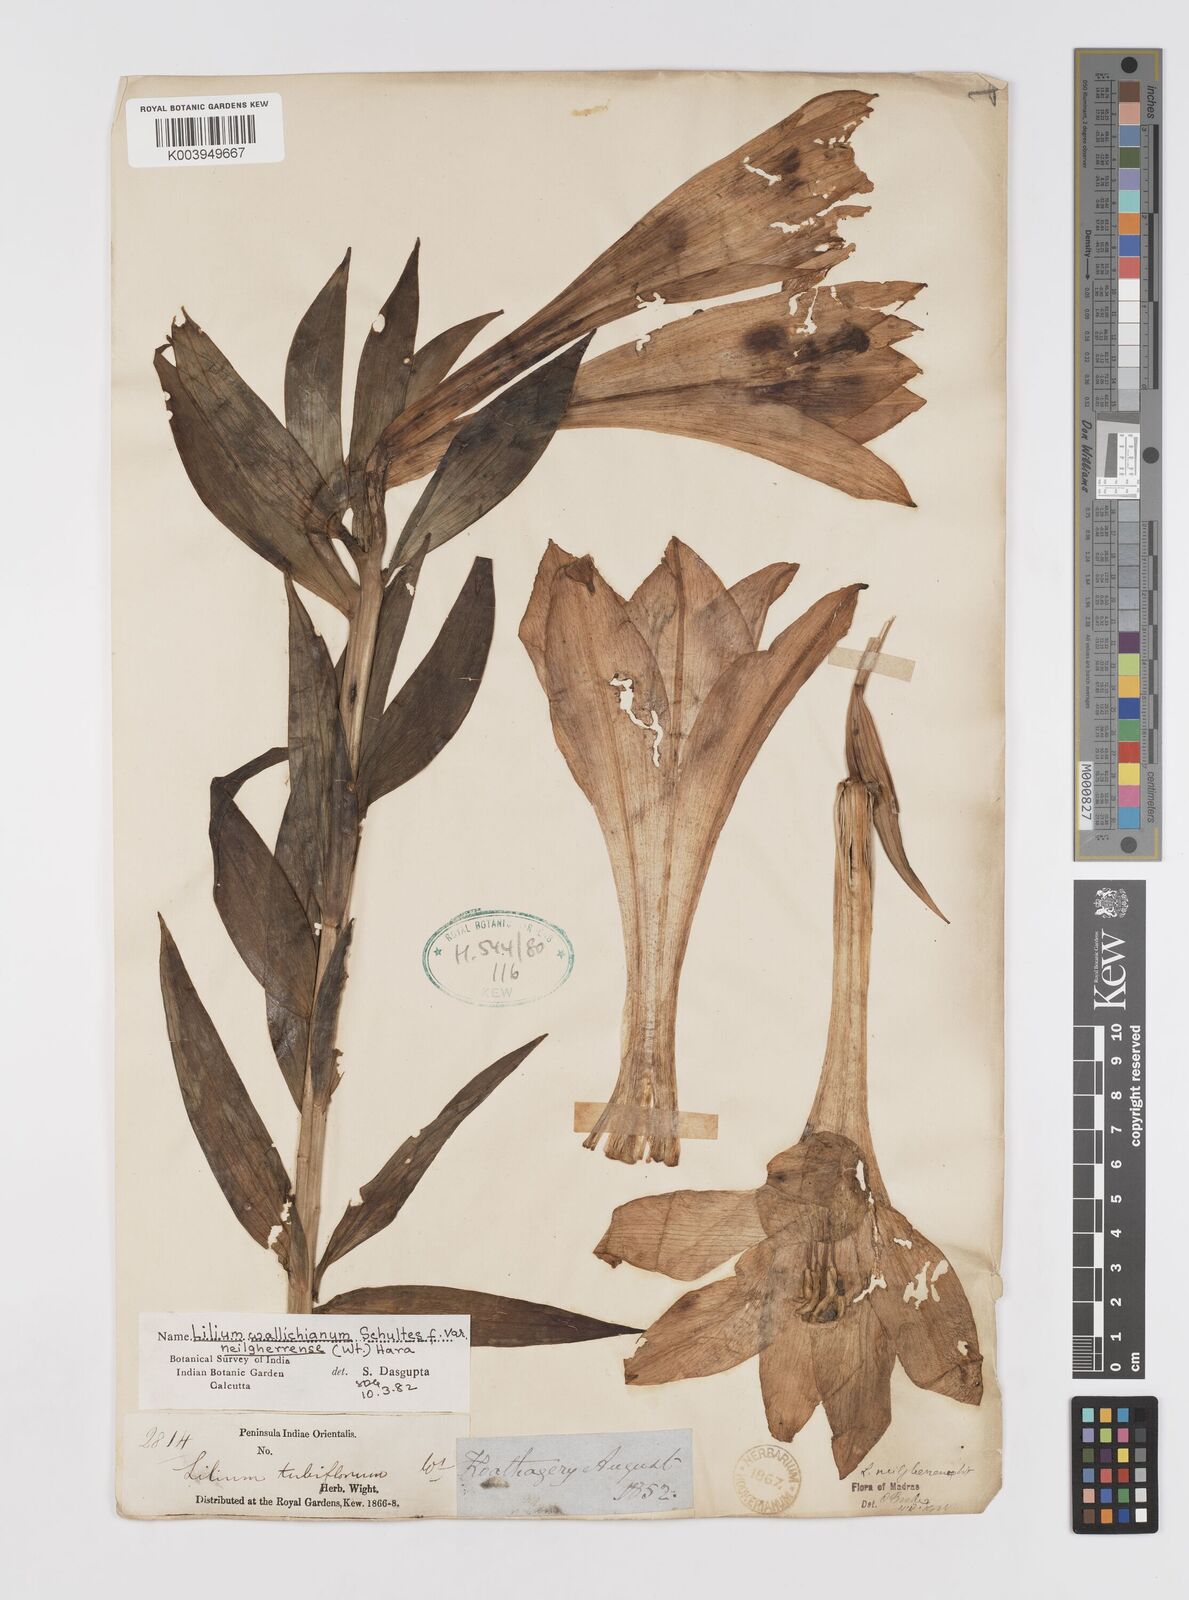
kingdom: Plantae
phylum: Tracheophyta
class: Liliopsida
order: Liliales
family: Liliaceae
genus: Lilium
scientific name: Lilium wallichianum
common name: Wallich's lily
